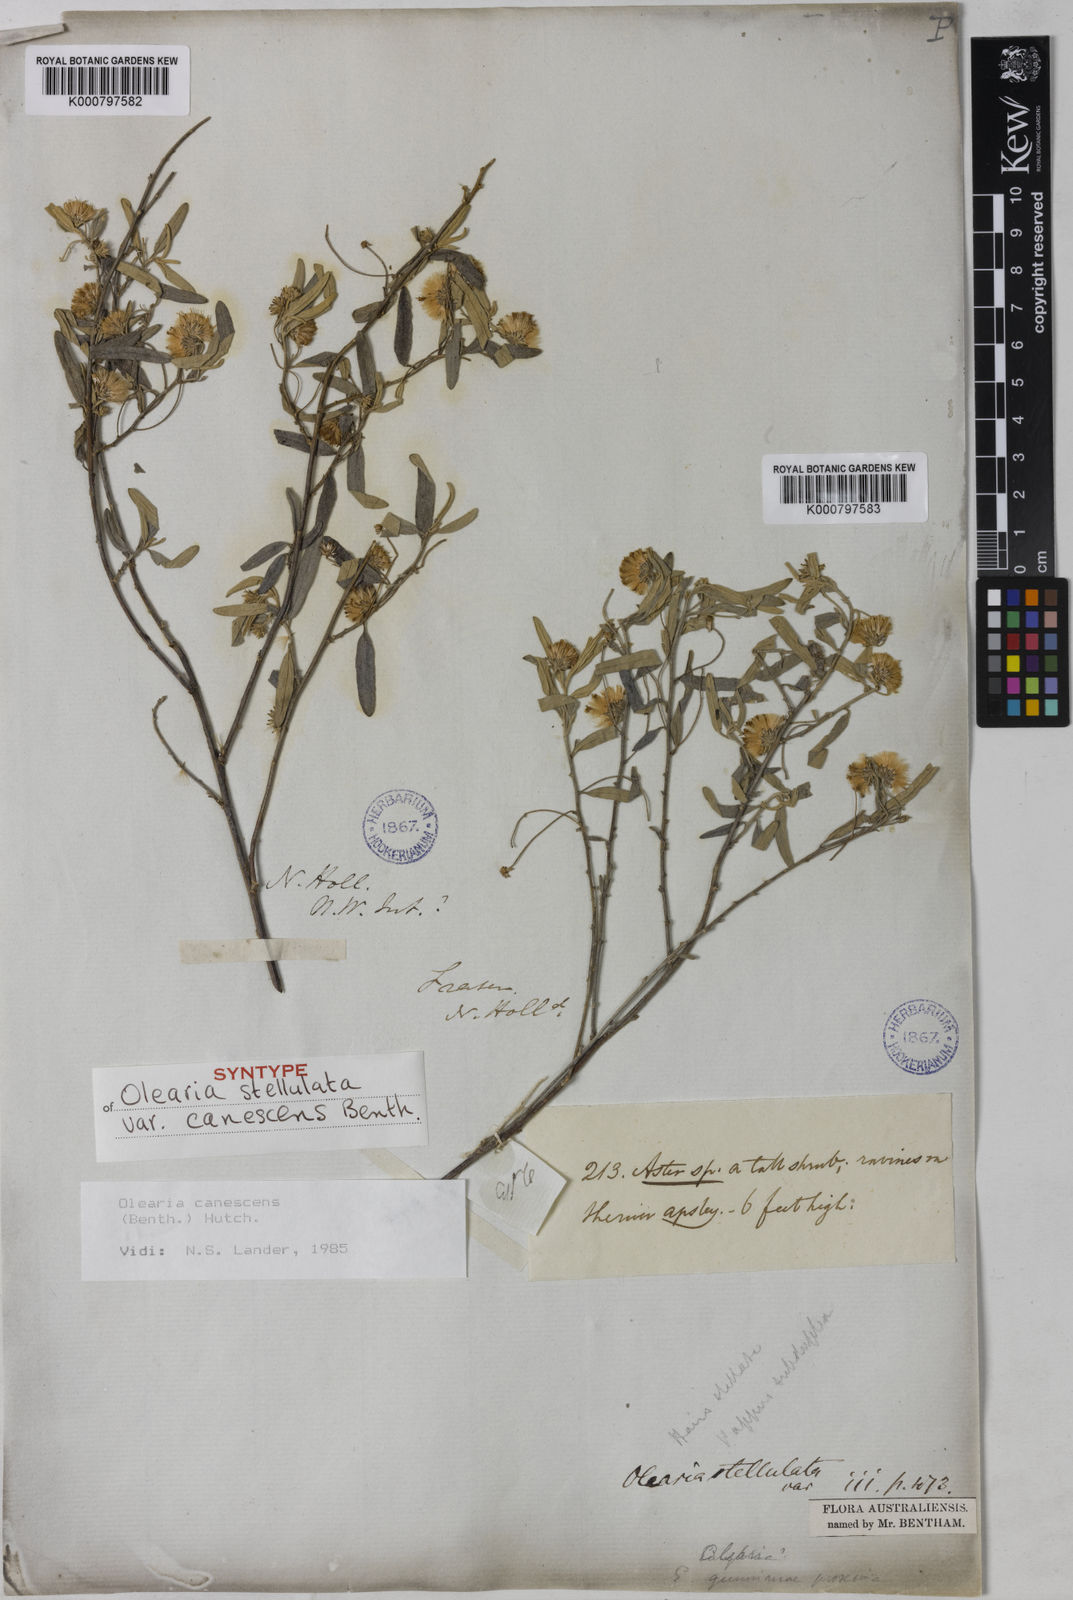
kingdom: Plantae
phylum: Tracheophyta
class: Magnoliopsida
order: Asterales
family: Asteraceae
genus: Olearia
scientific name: Olearia canescens
